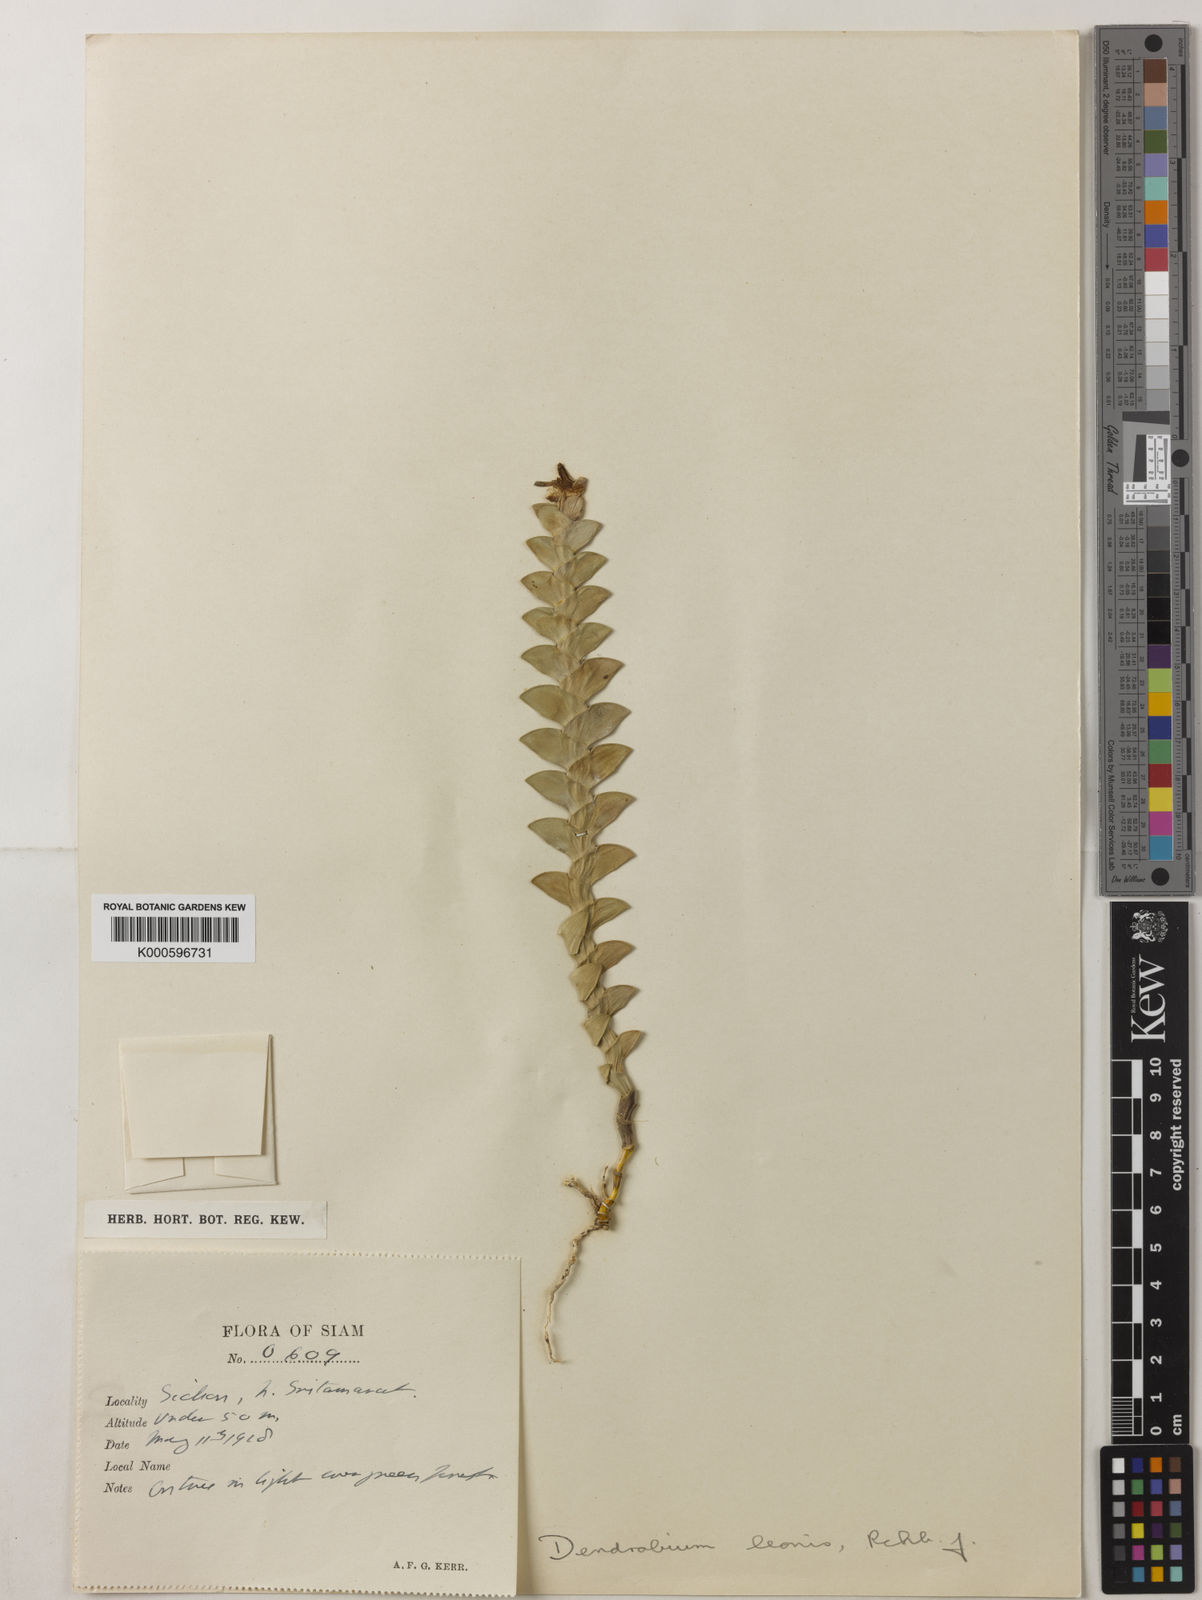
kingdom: Plantae
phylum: Tracheophyta
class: Liliopsida
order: Asparagales
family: Orchidaceae
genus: Dendrobium
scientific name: Dendrobium leonis
